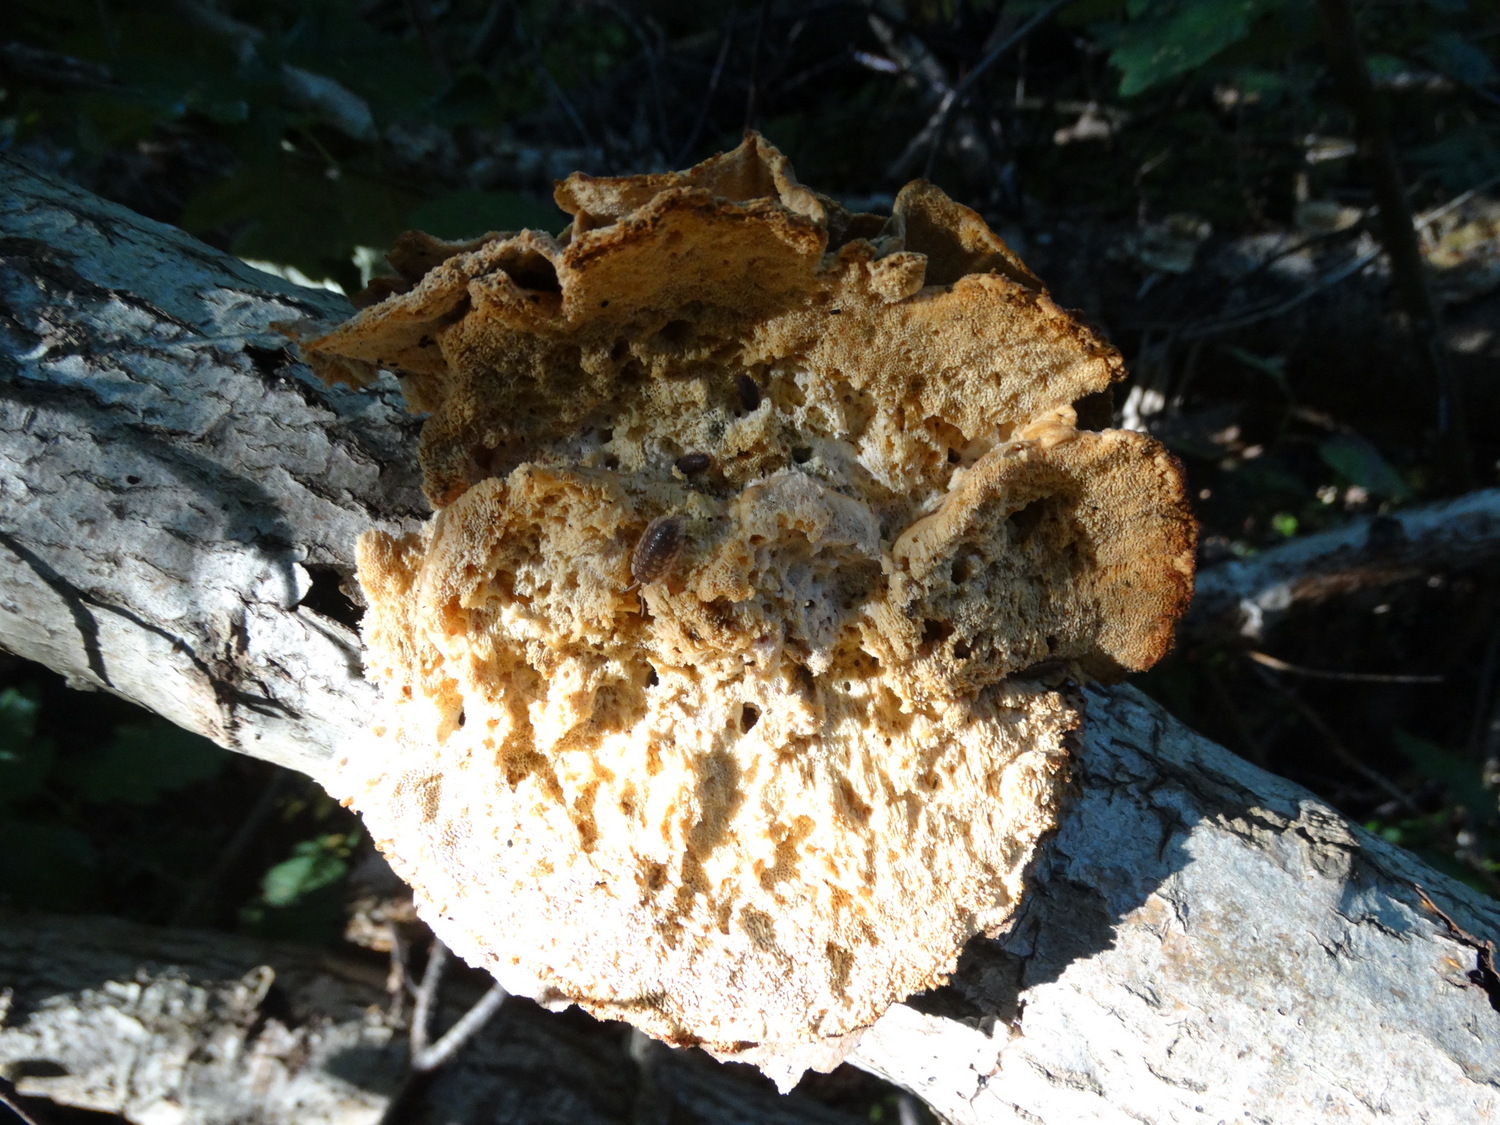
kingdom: Fungi
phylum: Basidiomycota
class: Agaricomycetes
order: Polyporales
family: Polyporaceae
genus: Trametes
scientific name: Trametes ochracea
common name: bæltet læderporesvamp
